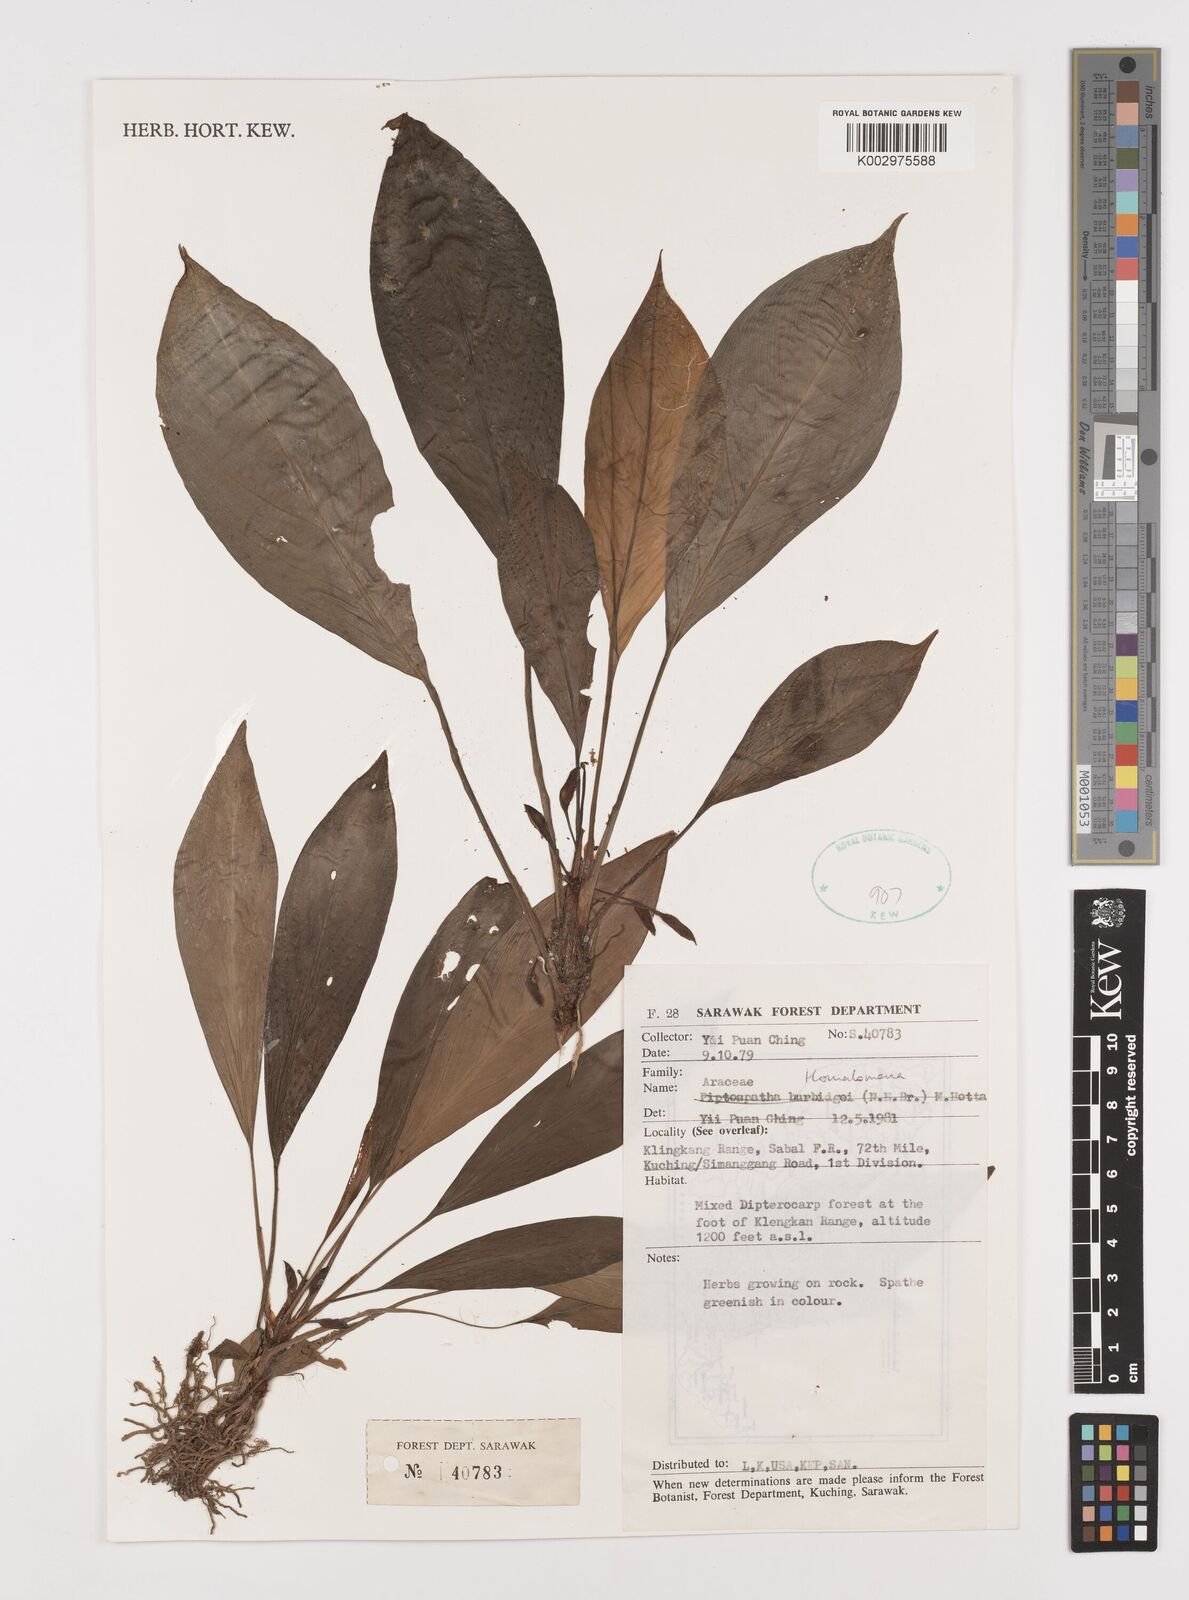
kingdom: Plantae
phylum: Tracheophyta
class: Liliopsida
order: Alismatales
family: Araceae
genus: Homalomena
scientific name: Homalomena
